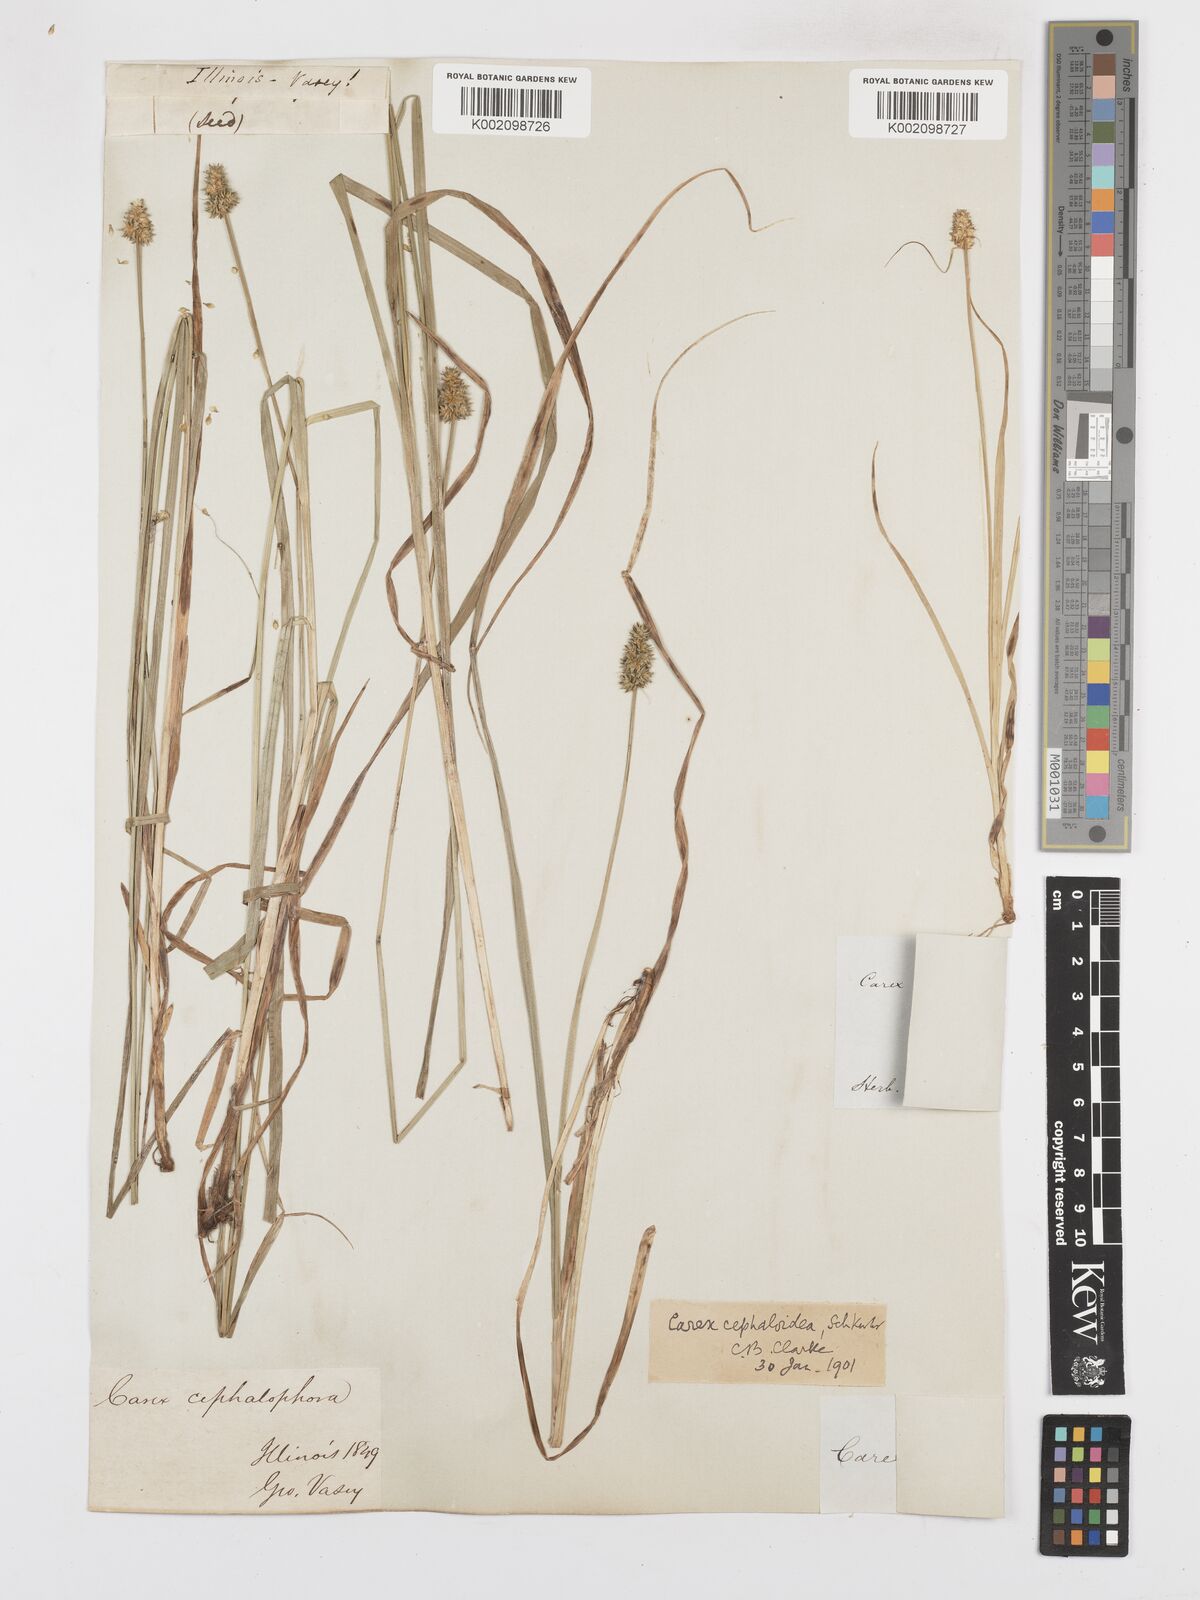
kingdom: Plantae
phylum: Tracheophyta
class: Liliopsida
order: Poales
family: Cyperaceae
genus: Carex
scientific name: Carex cephaloidea
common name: Thin-leaved sedge
